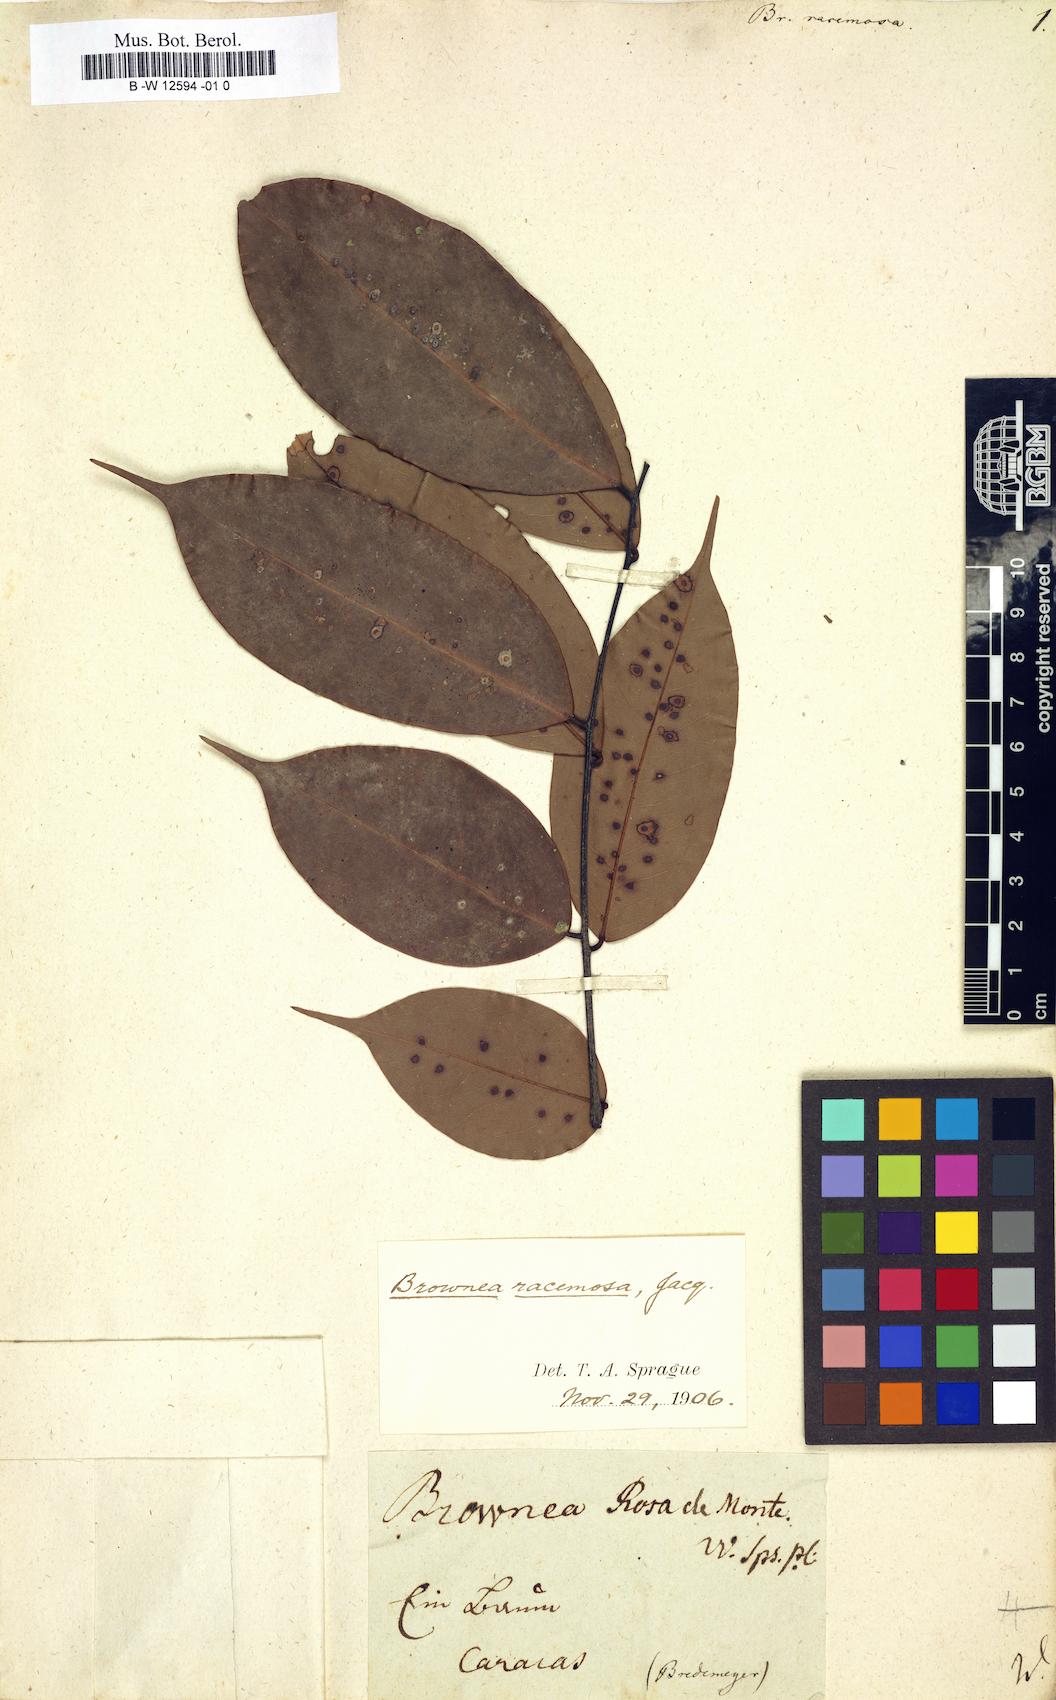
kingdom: Plantae
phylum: Tracheophyta
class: Magnoliopsida
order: Fabales
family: Fabaceae
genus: Brownea
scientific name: Brownea coccinea
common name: Scarlet flame-bean
